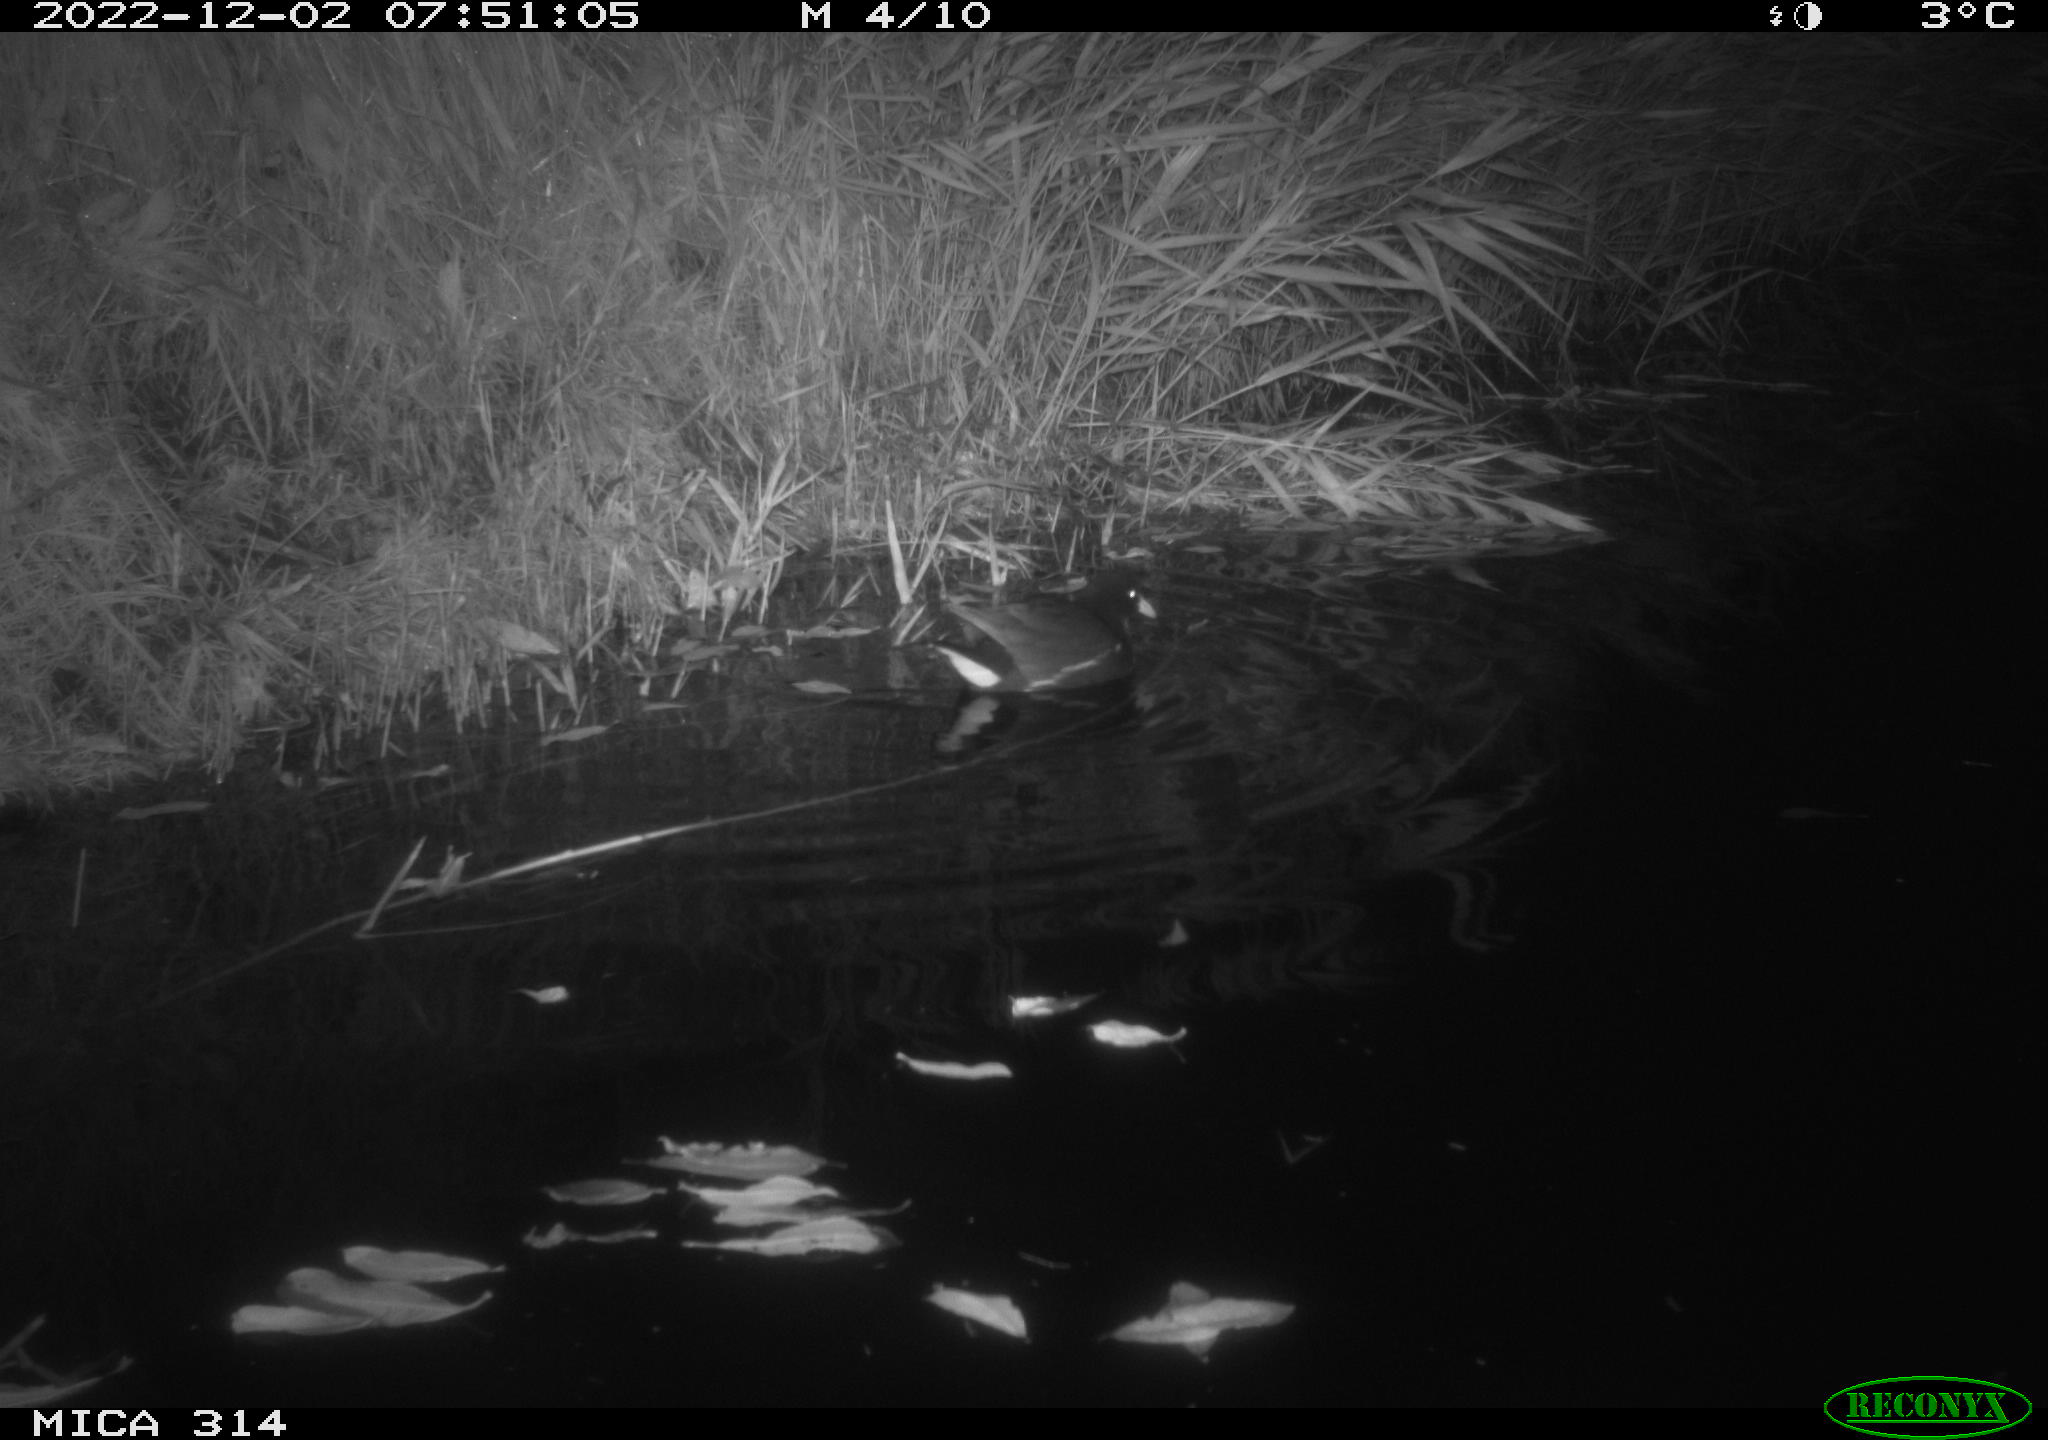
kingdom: Animalia
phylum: Chordata
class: Aves
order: Gruiformes
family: Rallidae
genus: Gallinula
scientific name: Gallinula chloropus
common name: Common moorhen
